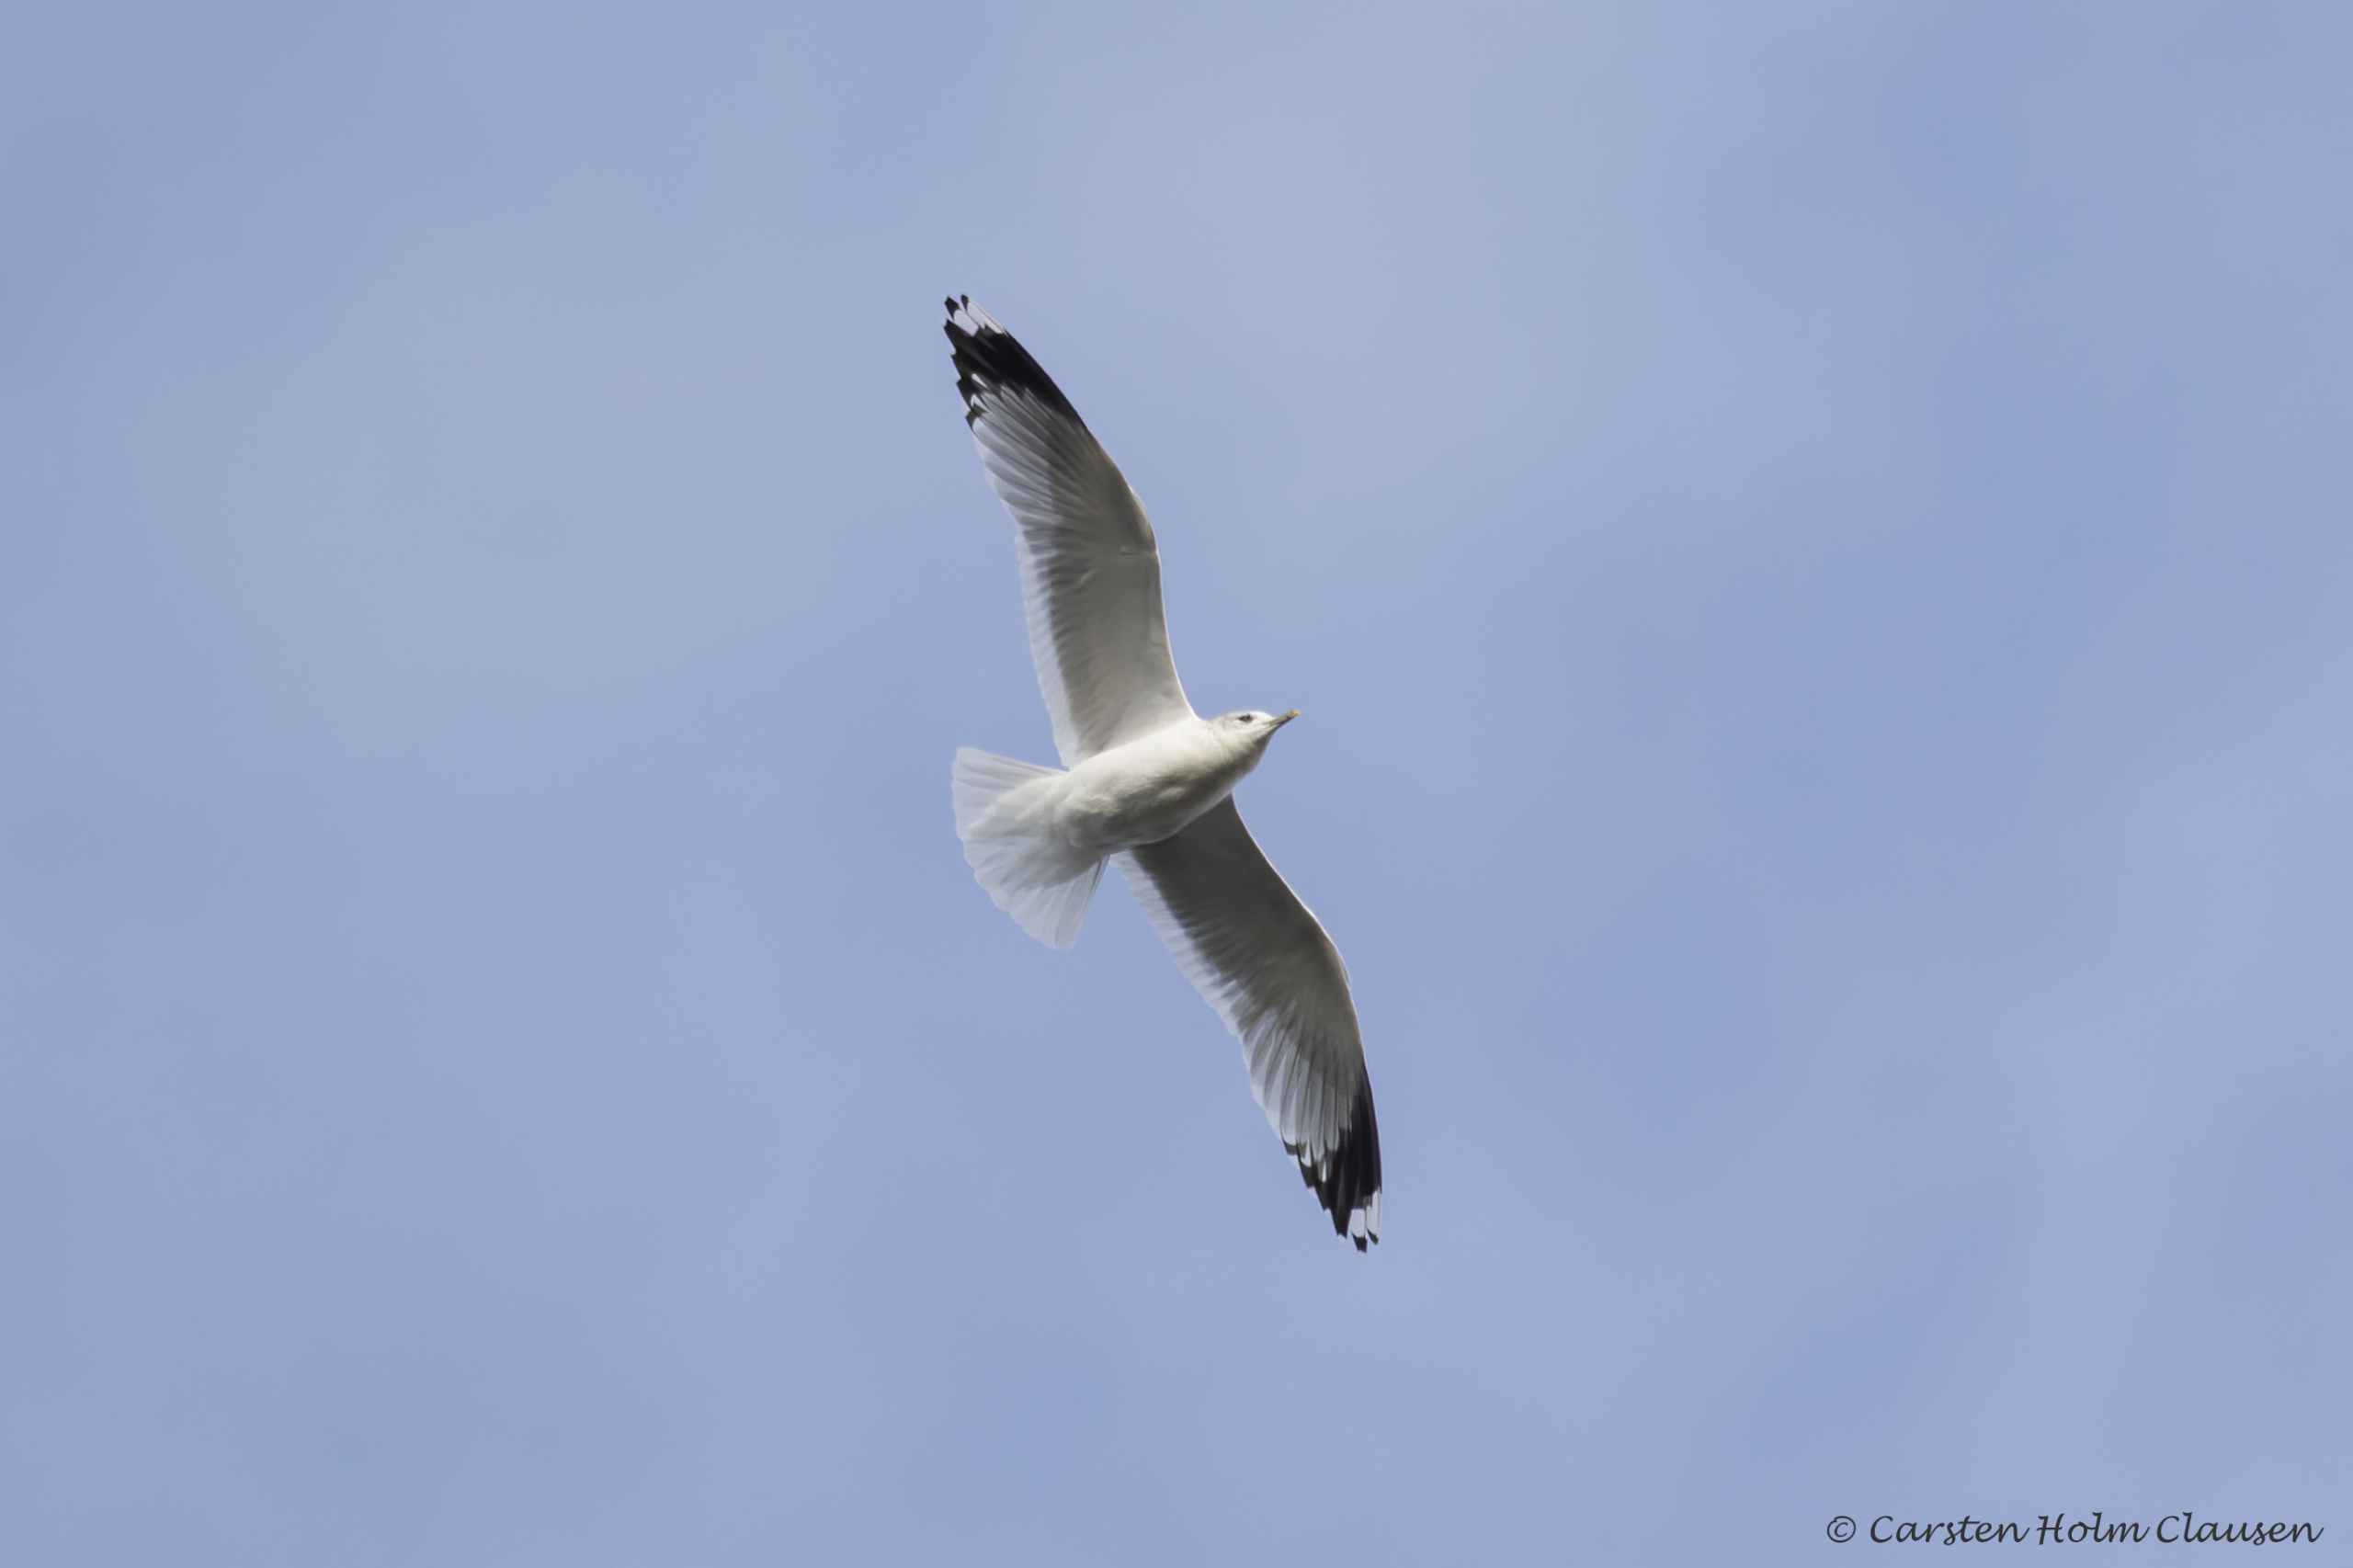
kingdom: Animalia
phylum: Chordata
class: Aves
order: Charadriiformes
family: Laridae
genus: Larus
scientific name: Larus canus
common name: Stormmåge
